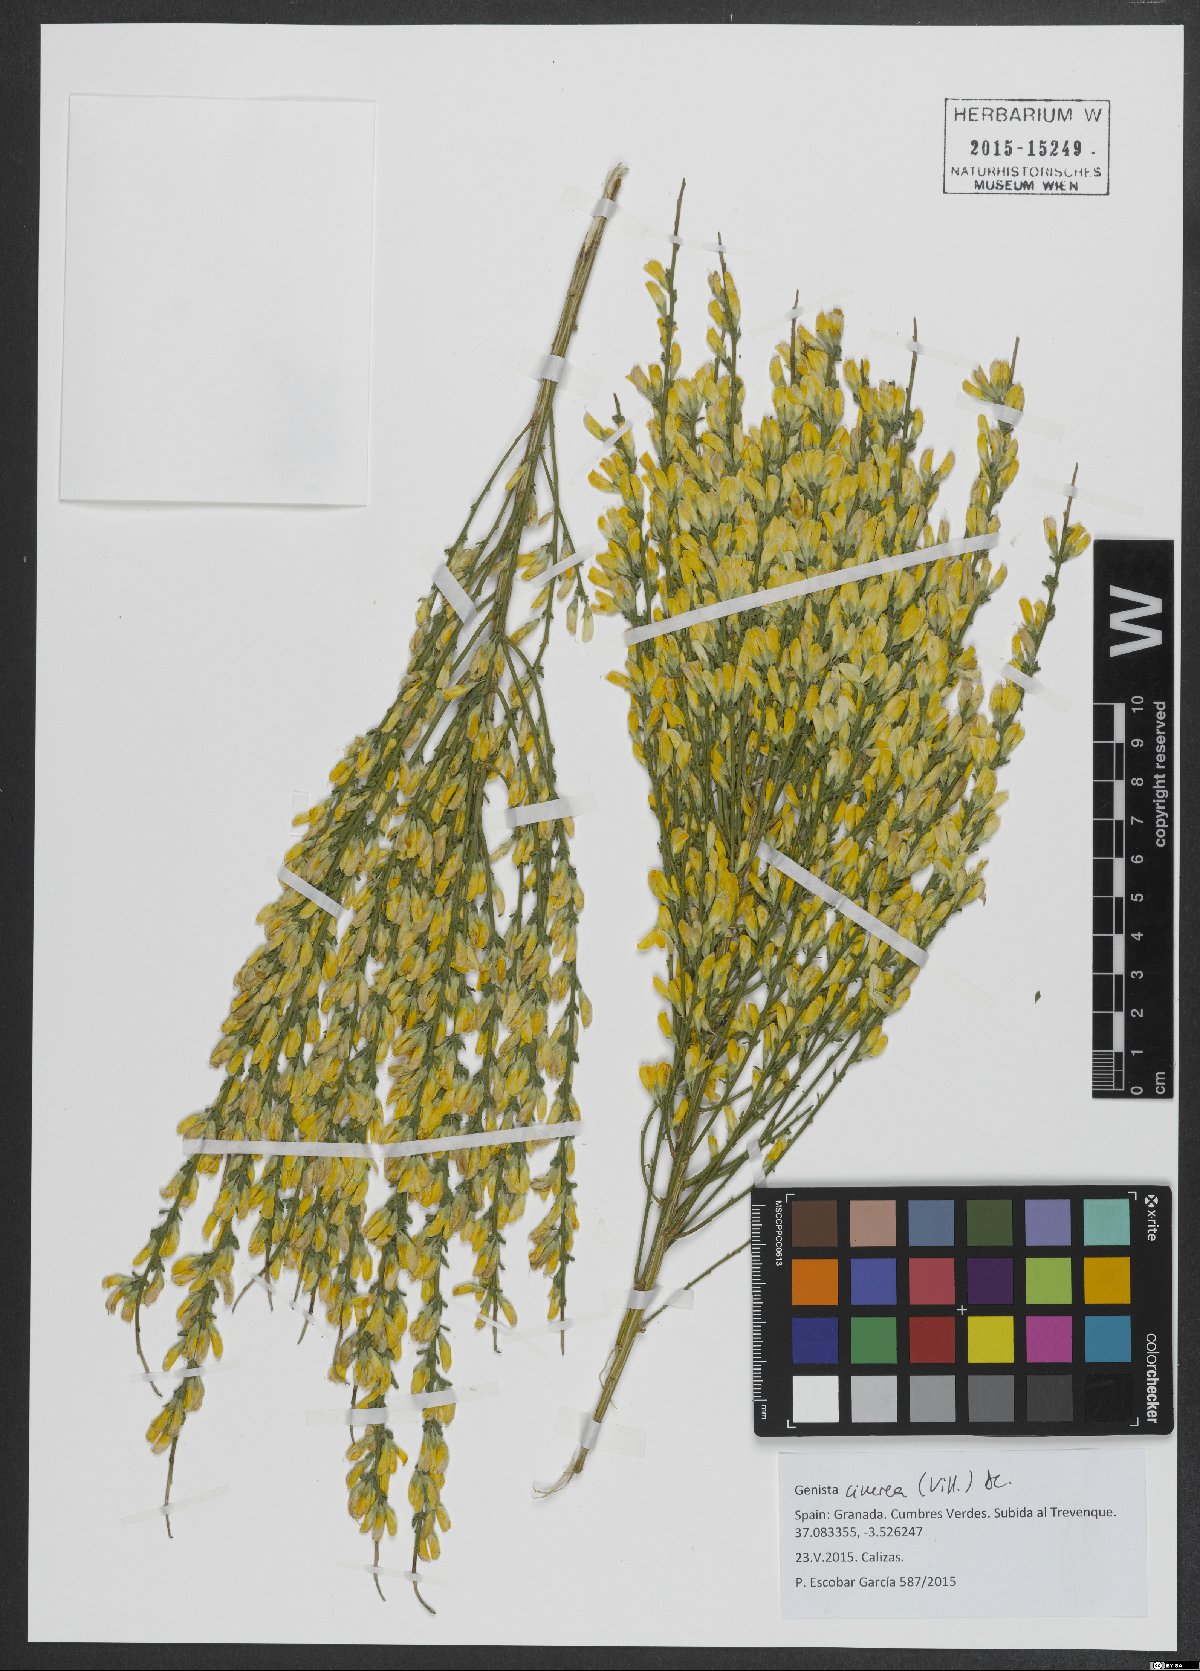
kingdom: Plantae
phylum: Tracheophyta
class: Magnoliopsida
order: Fabales
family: Fabaceae
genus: Genista
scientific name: Genista cinerea
